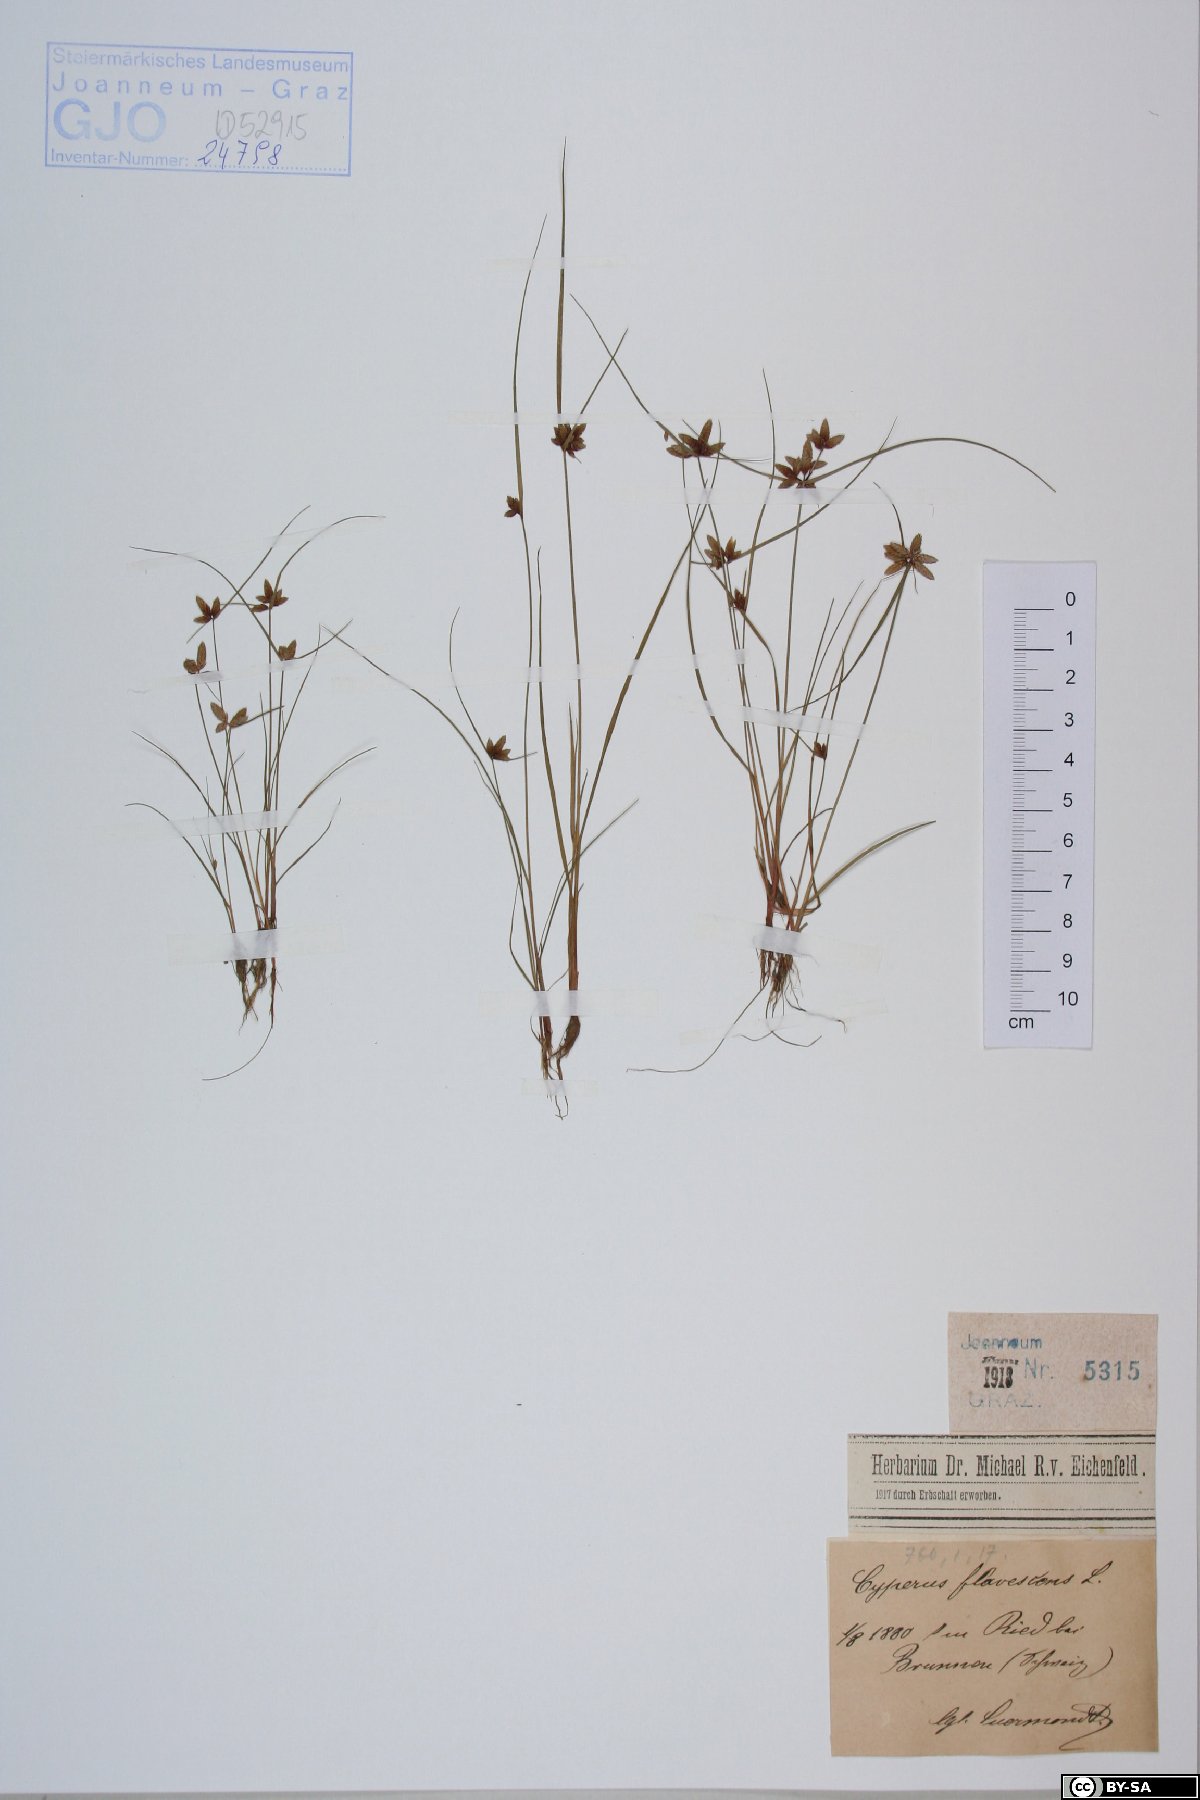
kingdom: Plantae
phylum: Tracheophyta
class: Liliopsida
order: Poales
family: Cyperaceae
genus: Cyperus
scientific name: Cyperus flavescens
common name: Yellow galingale
